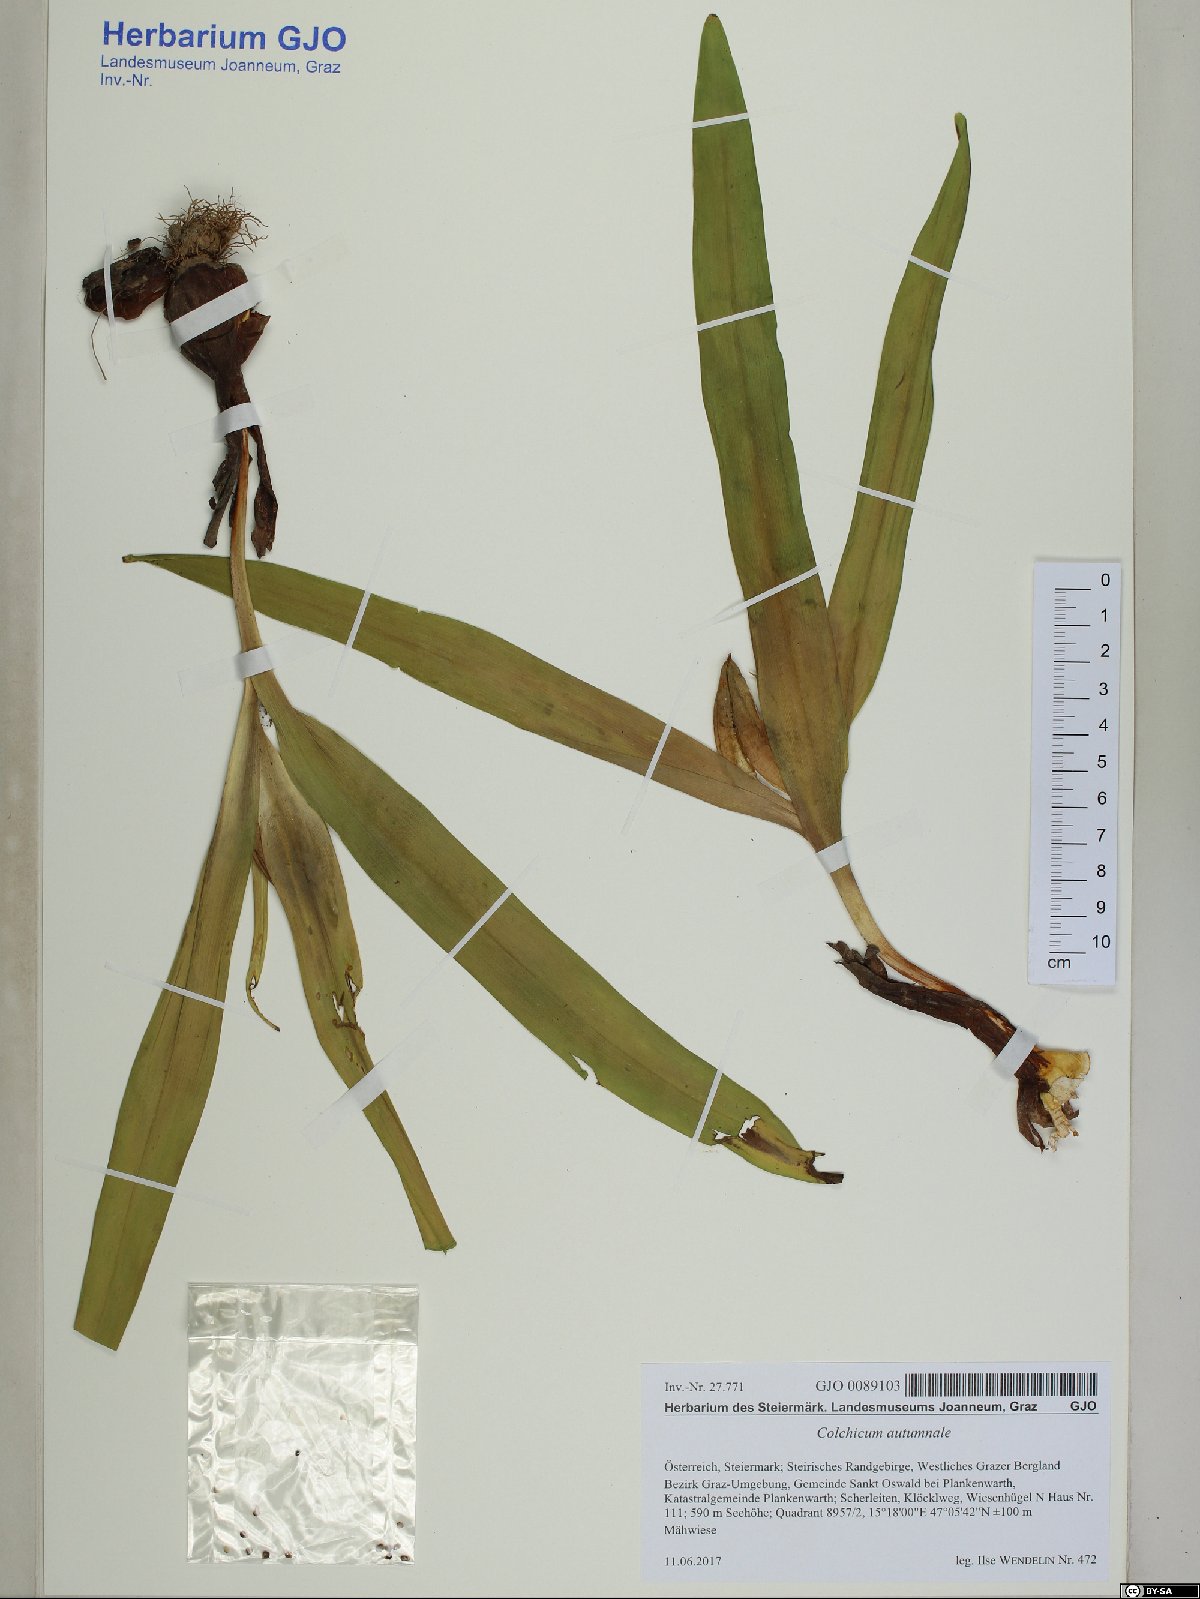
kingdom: Plantae
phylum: Tracheophyta
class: Liliopsida
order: Liliales
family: Colchicaceae
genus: Colchicum
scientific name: Colchicum autumnale
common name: Autumn crocus
